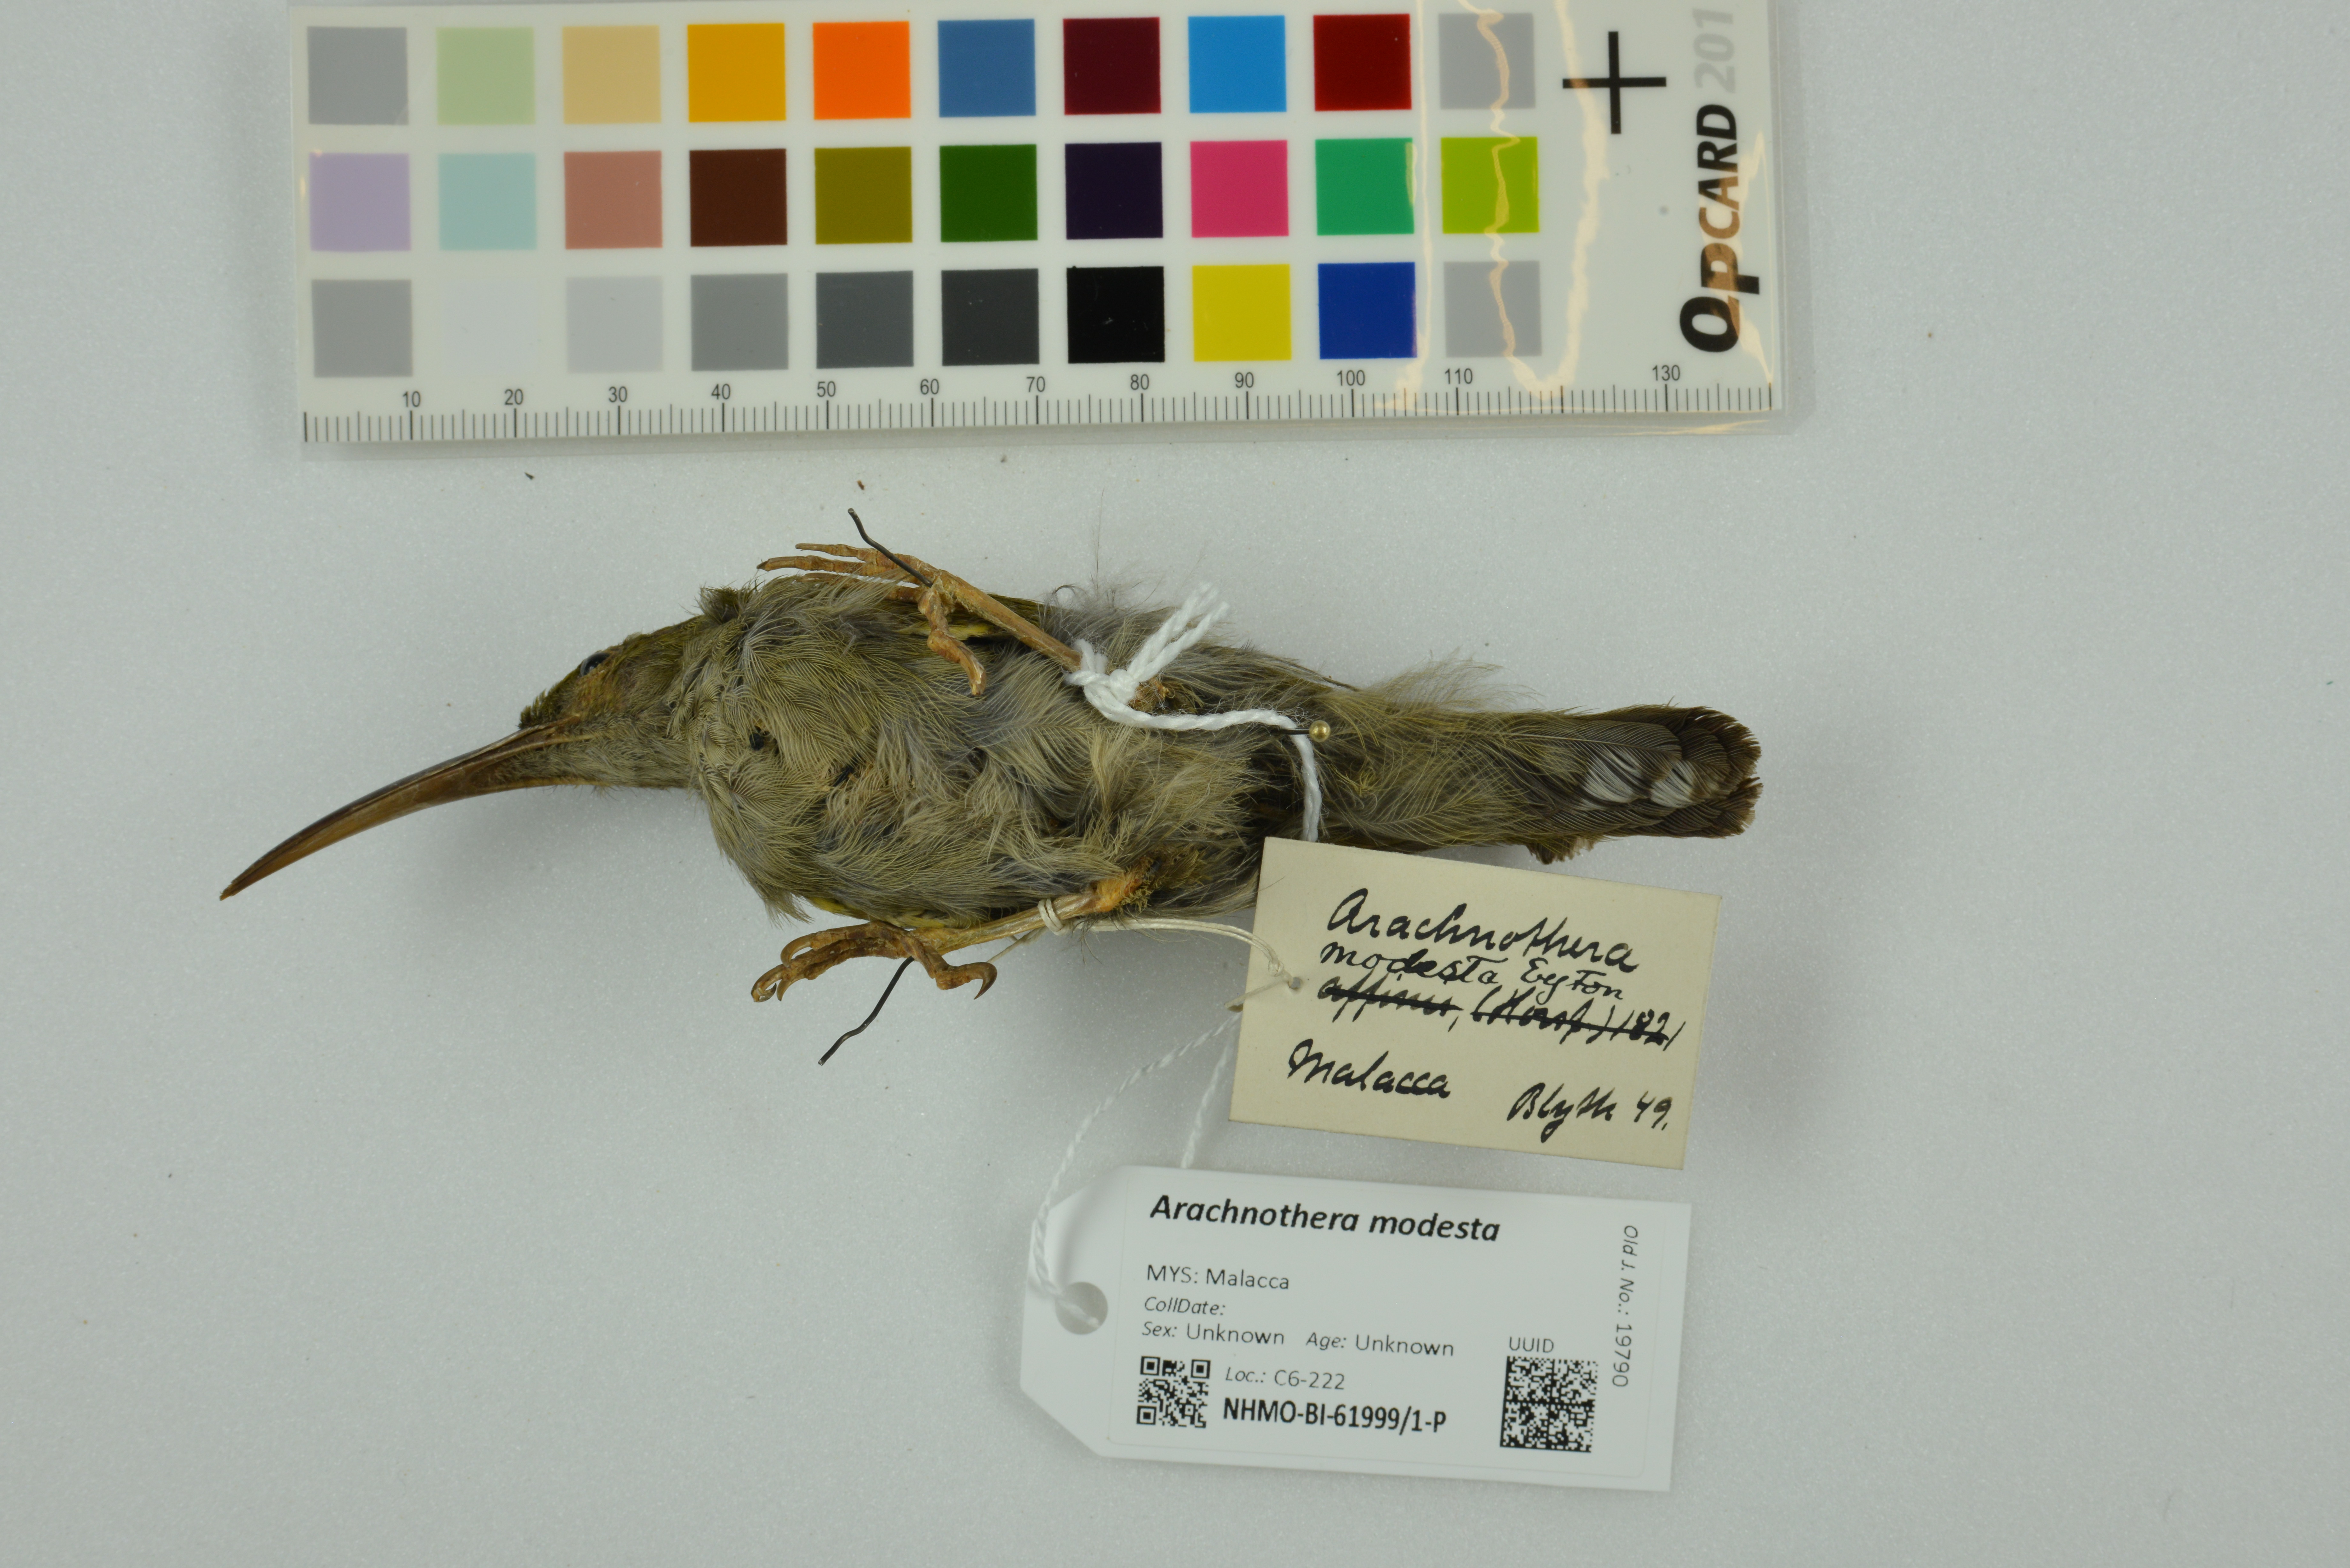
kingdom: Animalia
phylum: Chordata
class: Aves
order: Passeriformes
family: Nectariniidae
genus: Arachnothera
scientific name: Arachnothera modesta
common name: Grey-breasted spiderhunter
